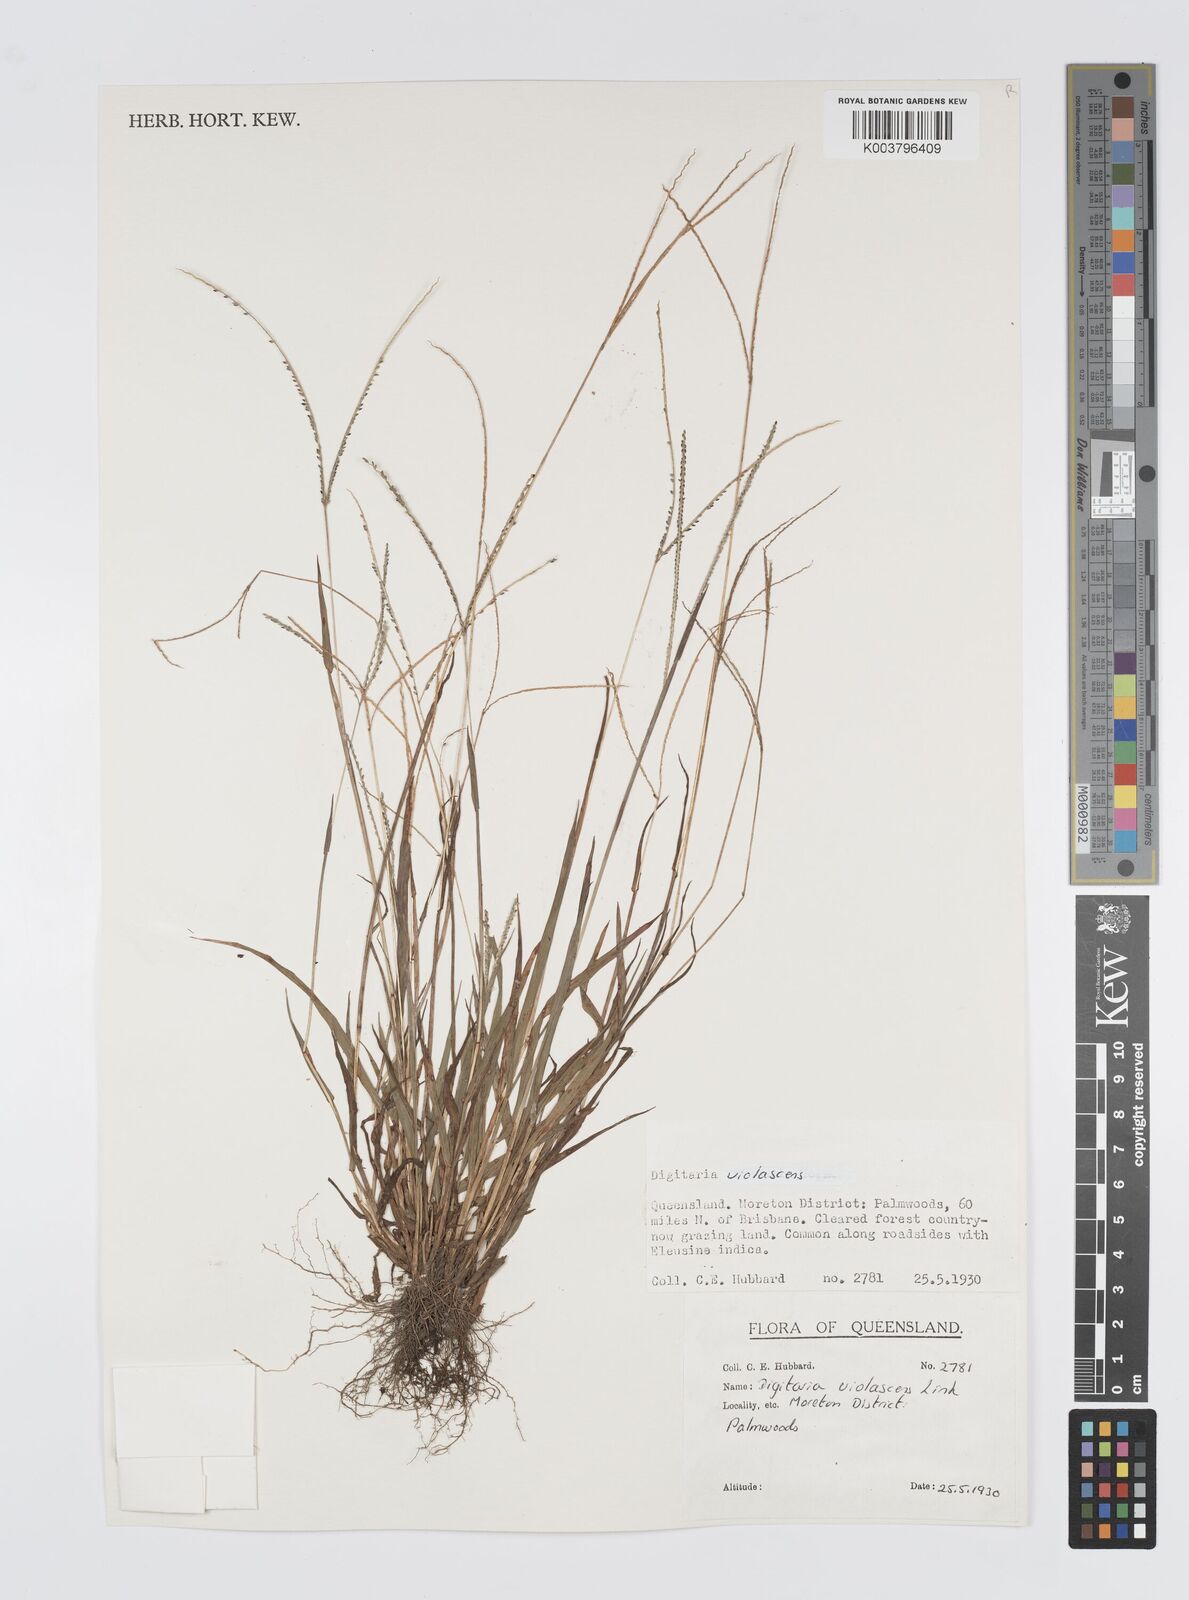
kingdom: Plantae
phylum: Tracheophyta
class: Liliopsida
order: Poales
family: Poaceae
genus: Digitaria
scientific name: Digitaria violascens
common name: Violet crabgrass
